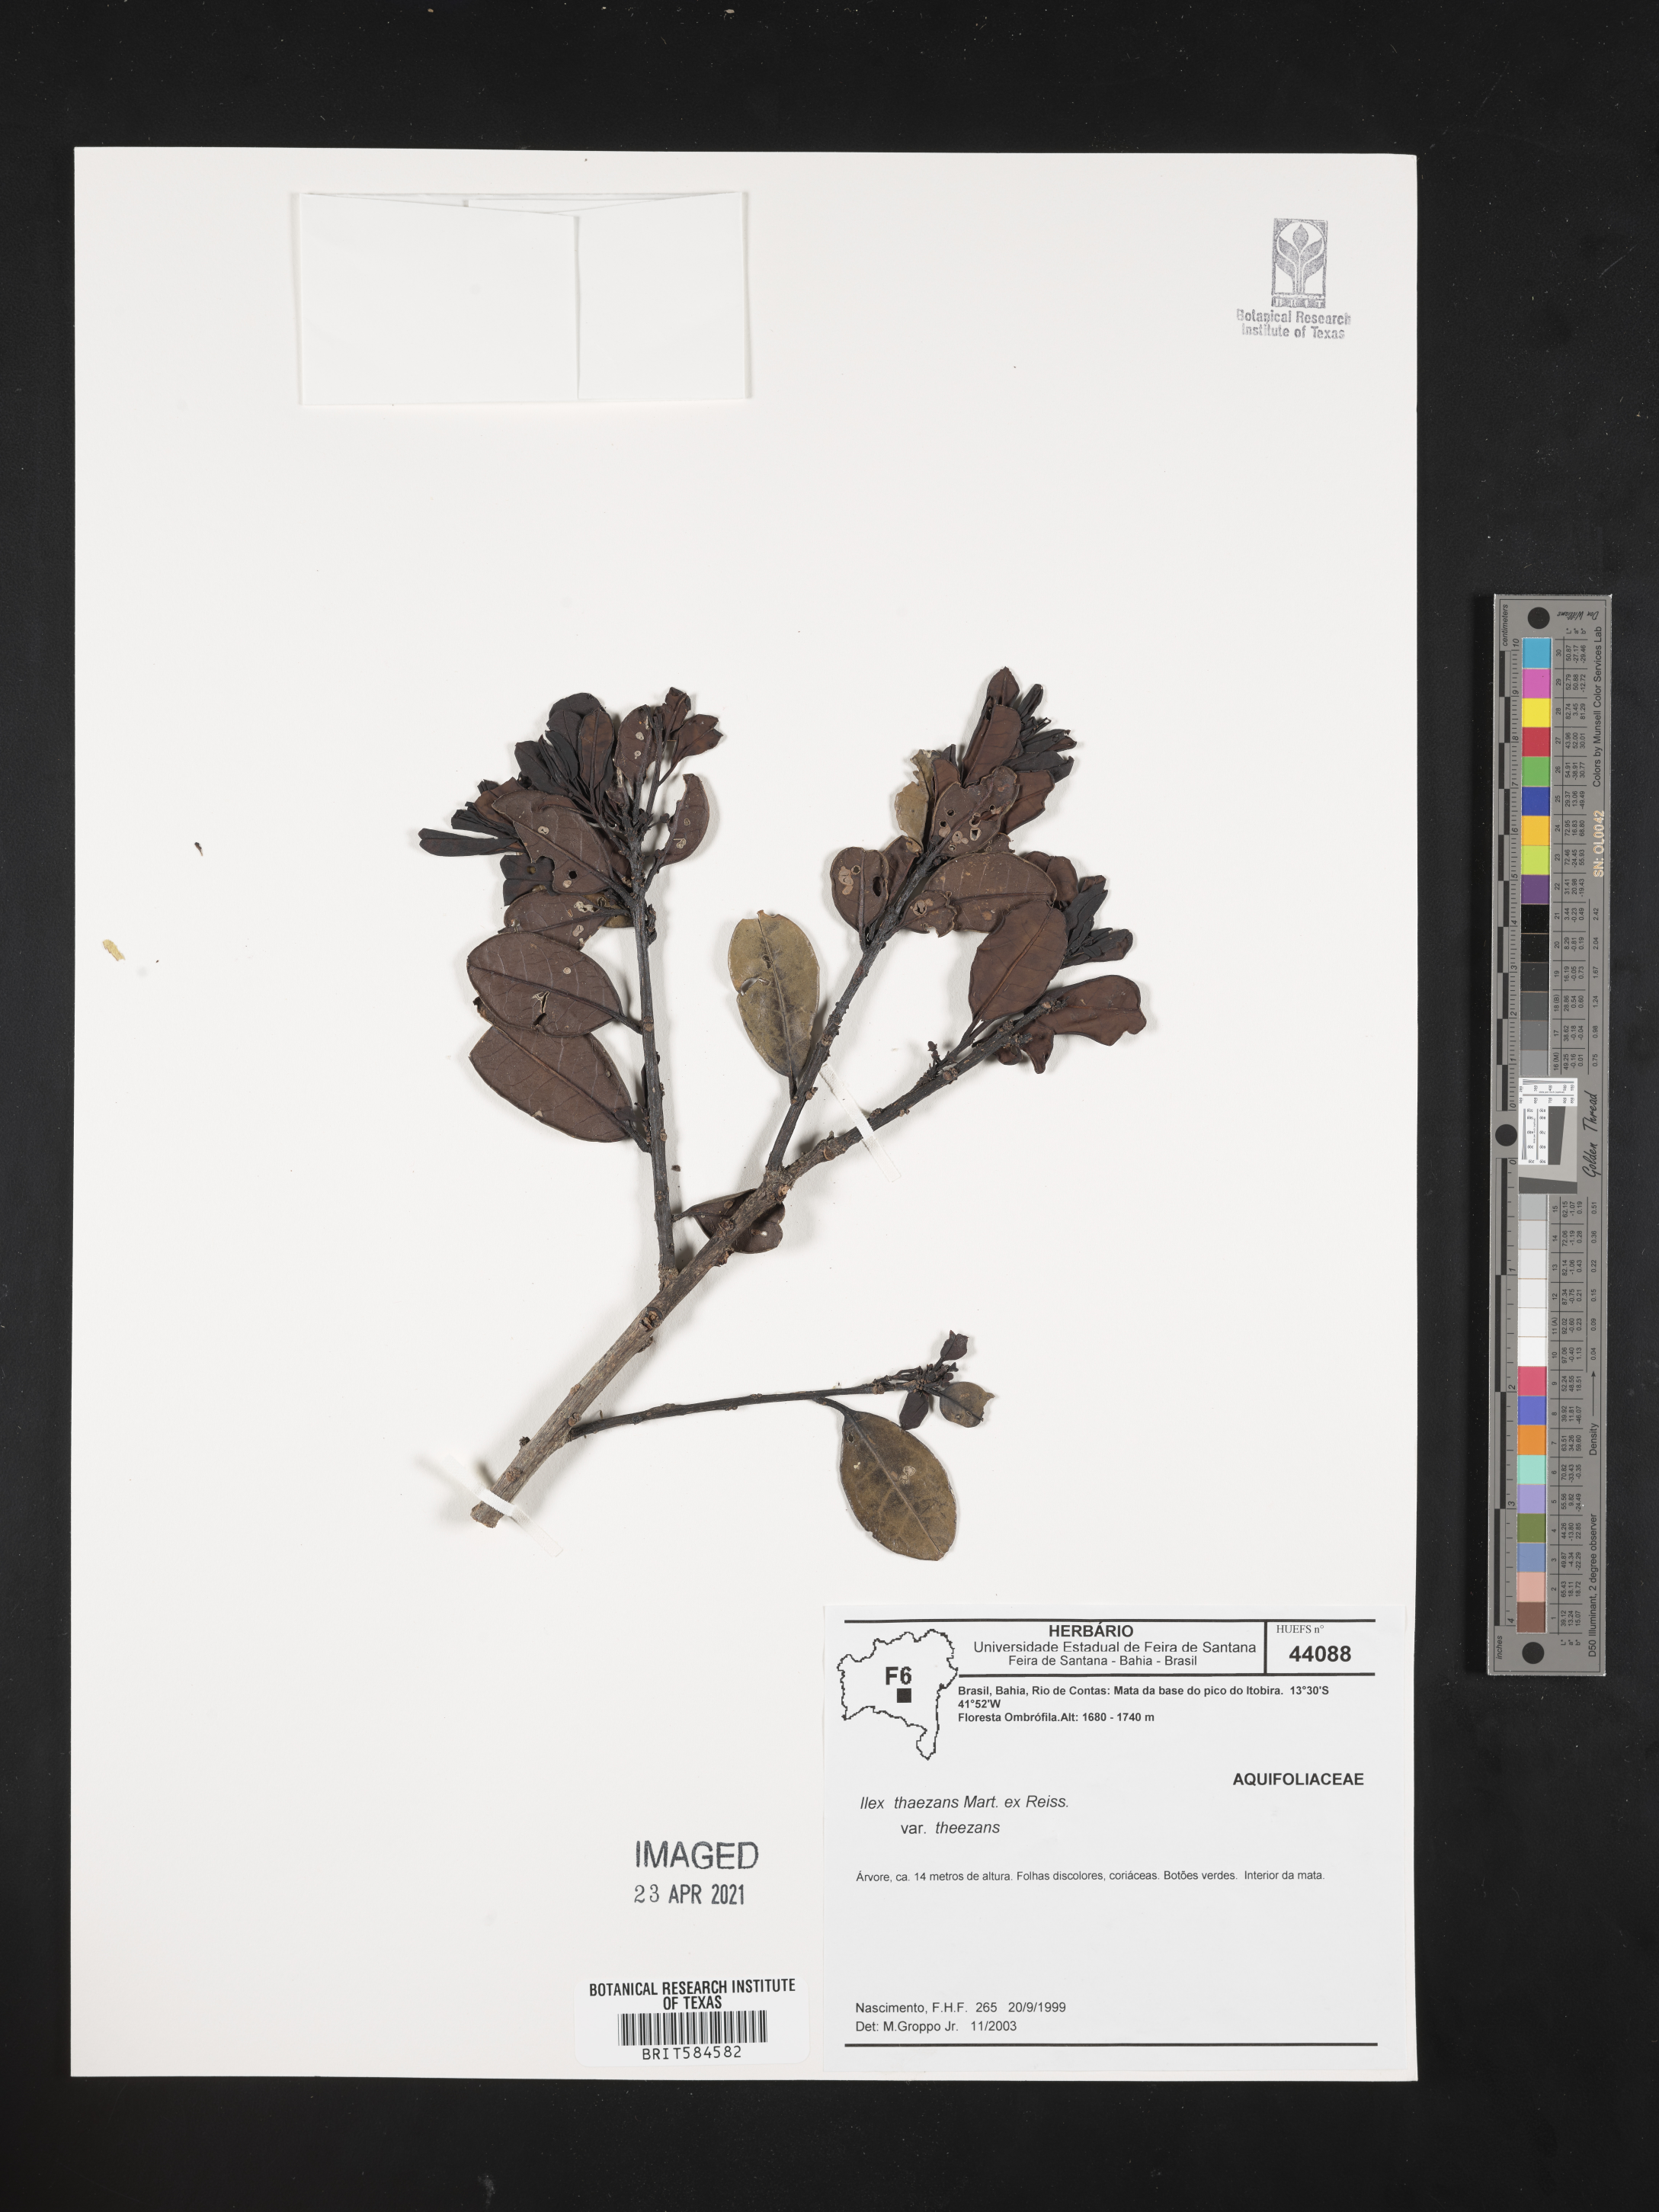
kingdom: Plantae
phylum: Tracheophyta
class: Magnoliopsida
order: Aquifoliales
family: Aquifoliaceae
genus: Ilex
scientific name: Ilex theezans
